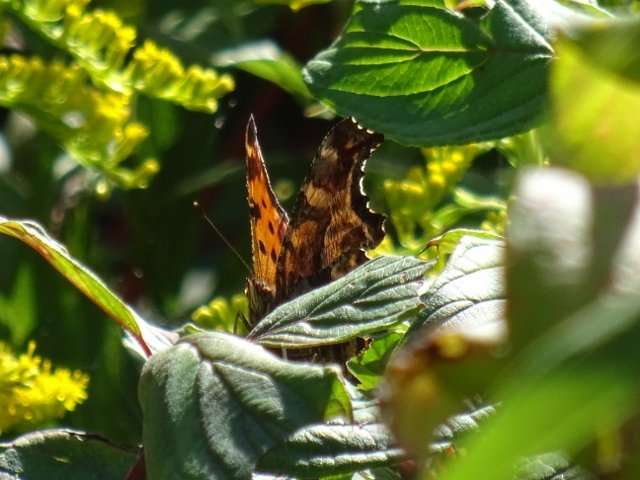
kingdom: Animalia
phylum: Arthropoda
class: Insecta
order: Lepidoptera
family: Nymphalidae
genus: Polygonia
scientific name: Polygonia
